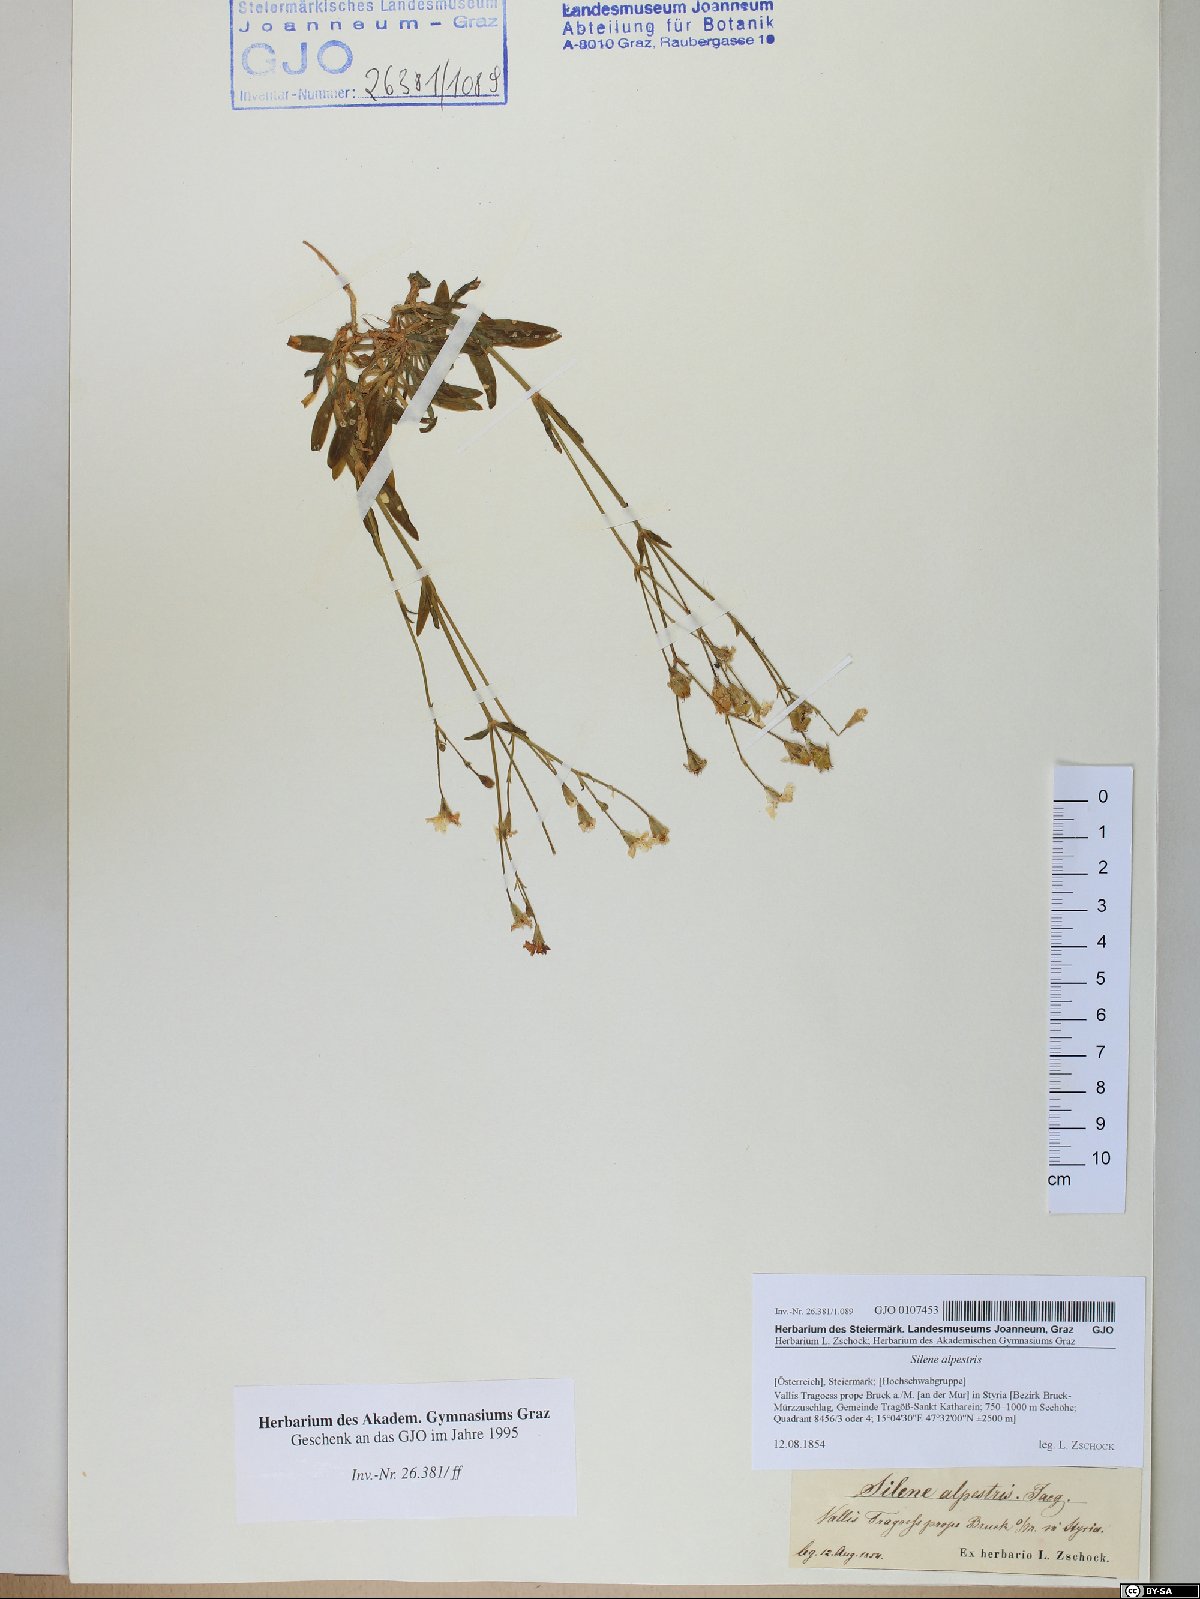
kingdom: Plantae
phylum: Tracheophyta
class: Magnoliopsida
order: Caryophyllales
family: Caryophyllaceae
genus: Heliosperma
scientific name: Heliosperma alpestre
